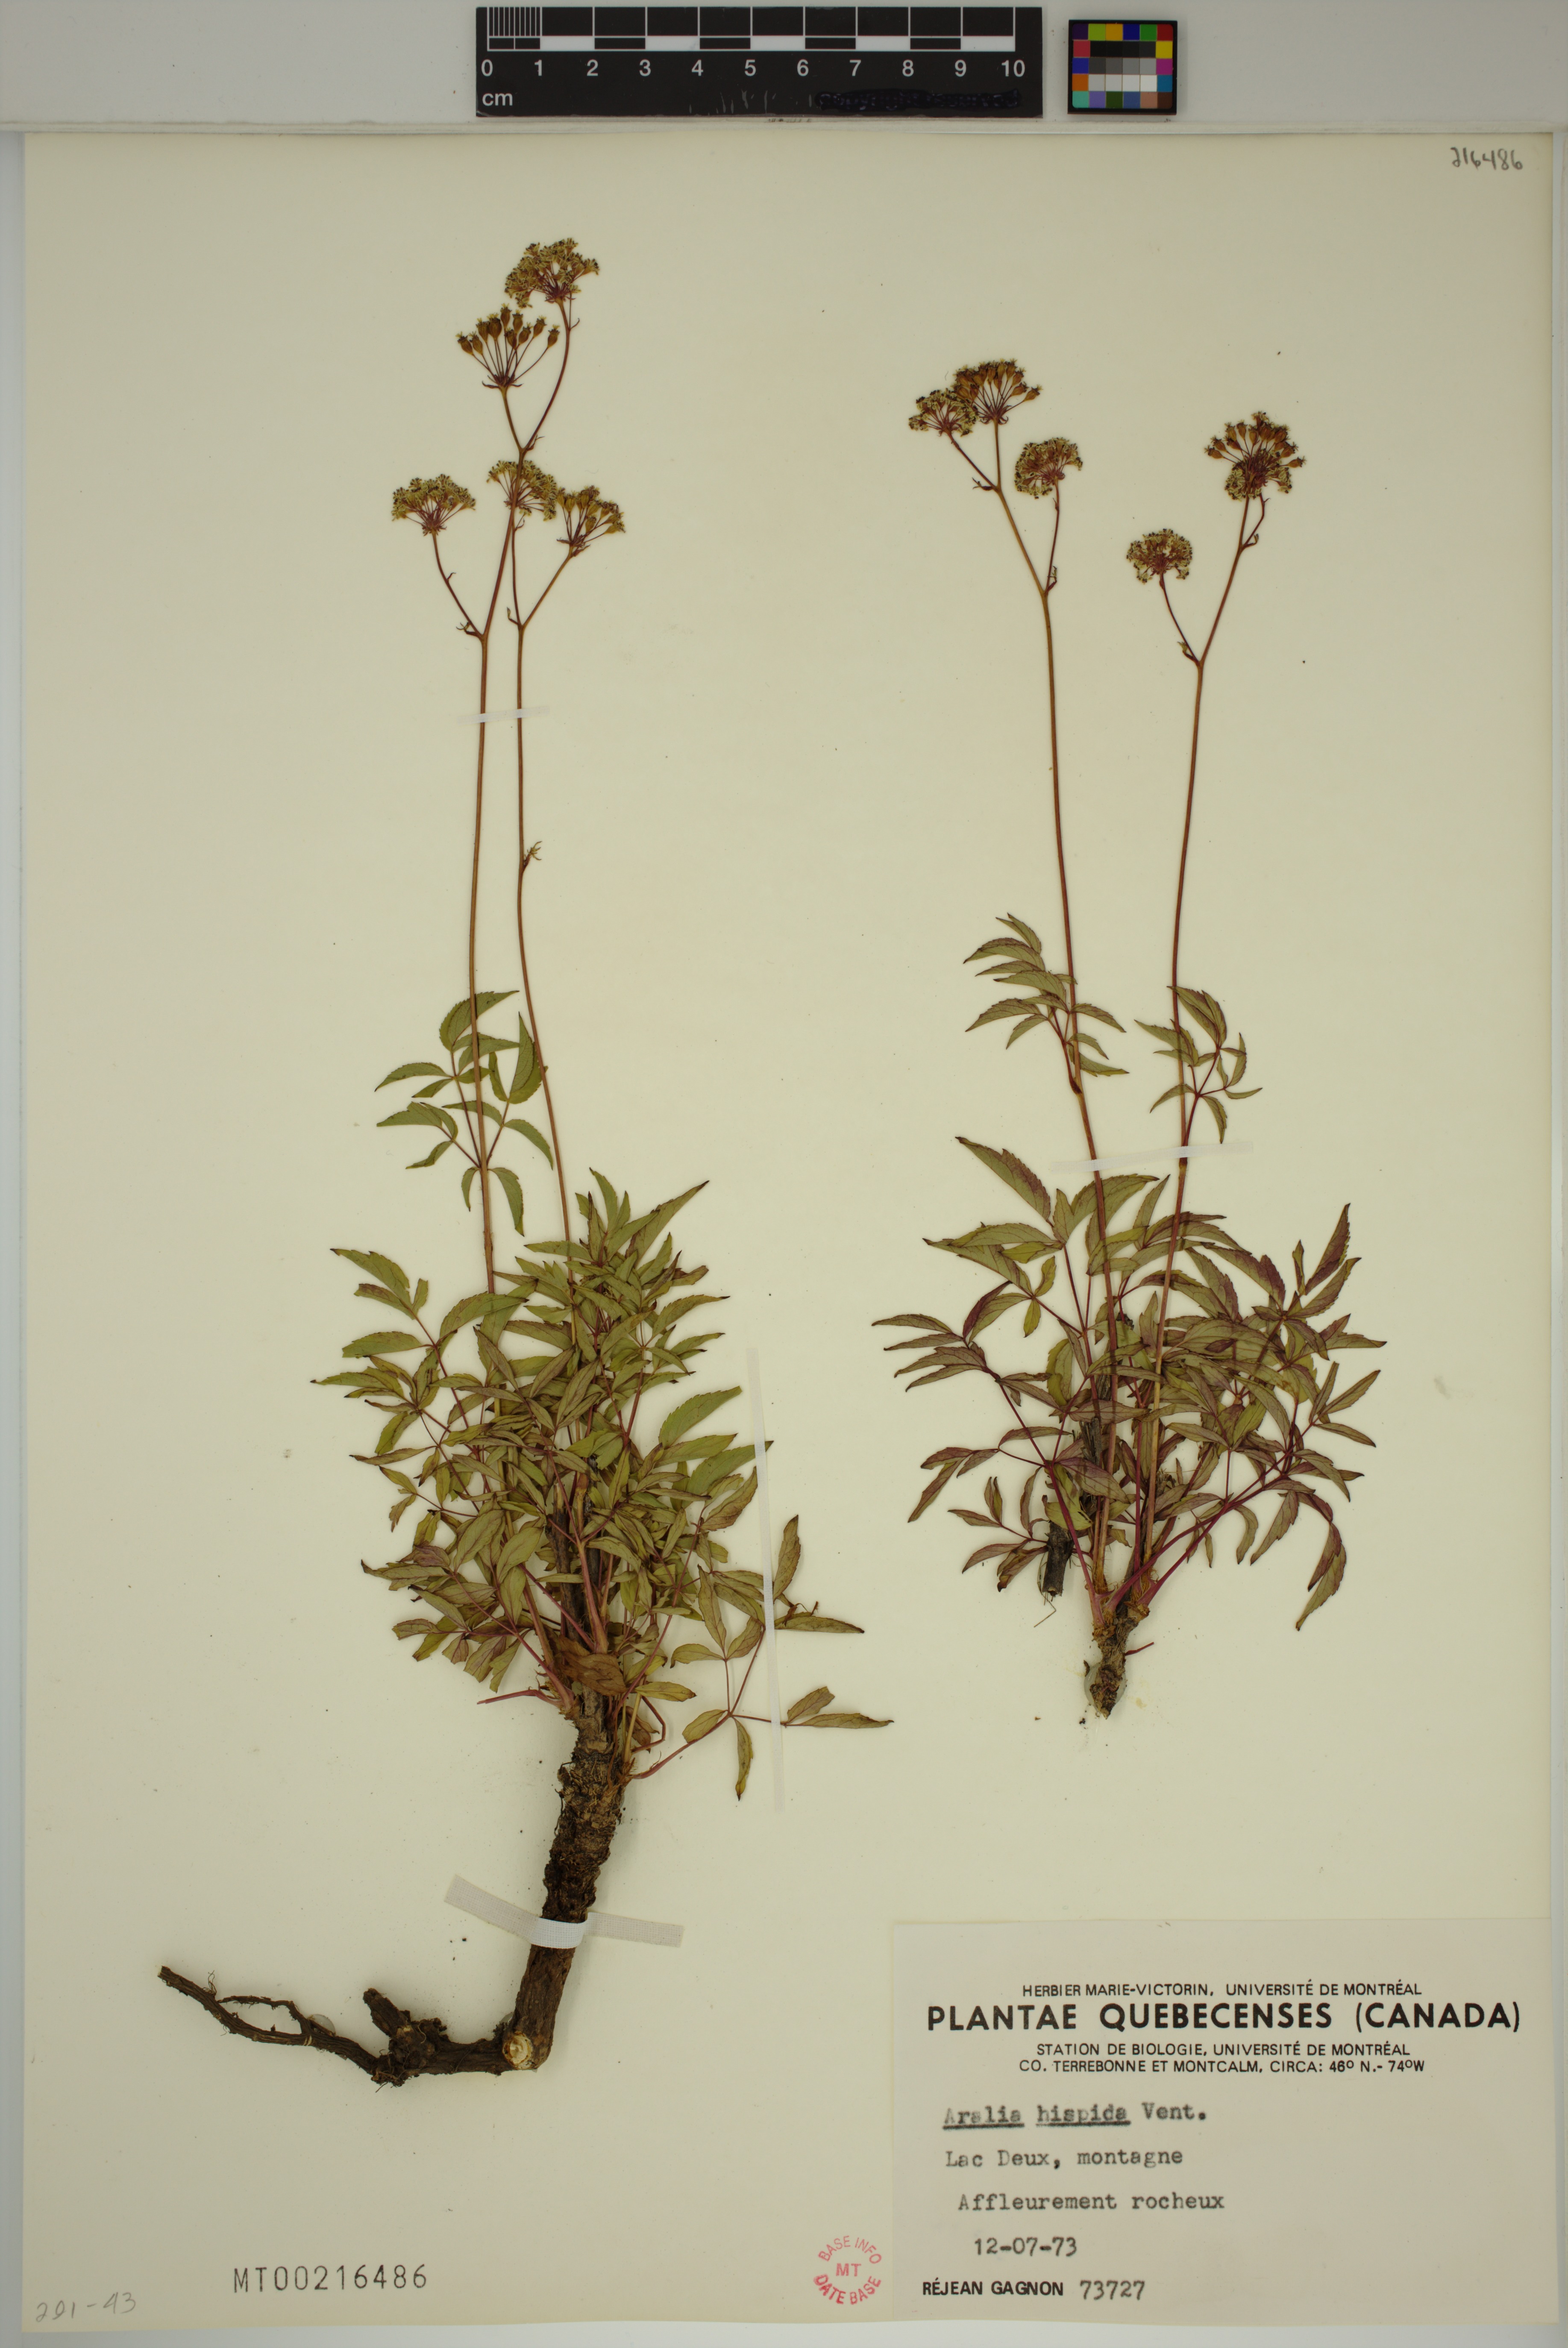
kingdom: Plantae
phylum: Tracheophyta
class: Magnoliopsida
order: Apiales
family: Araliaceae
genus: Aralia
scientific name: Aralia hispida
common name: Bristly sarsaparilla
